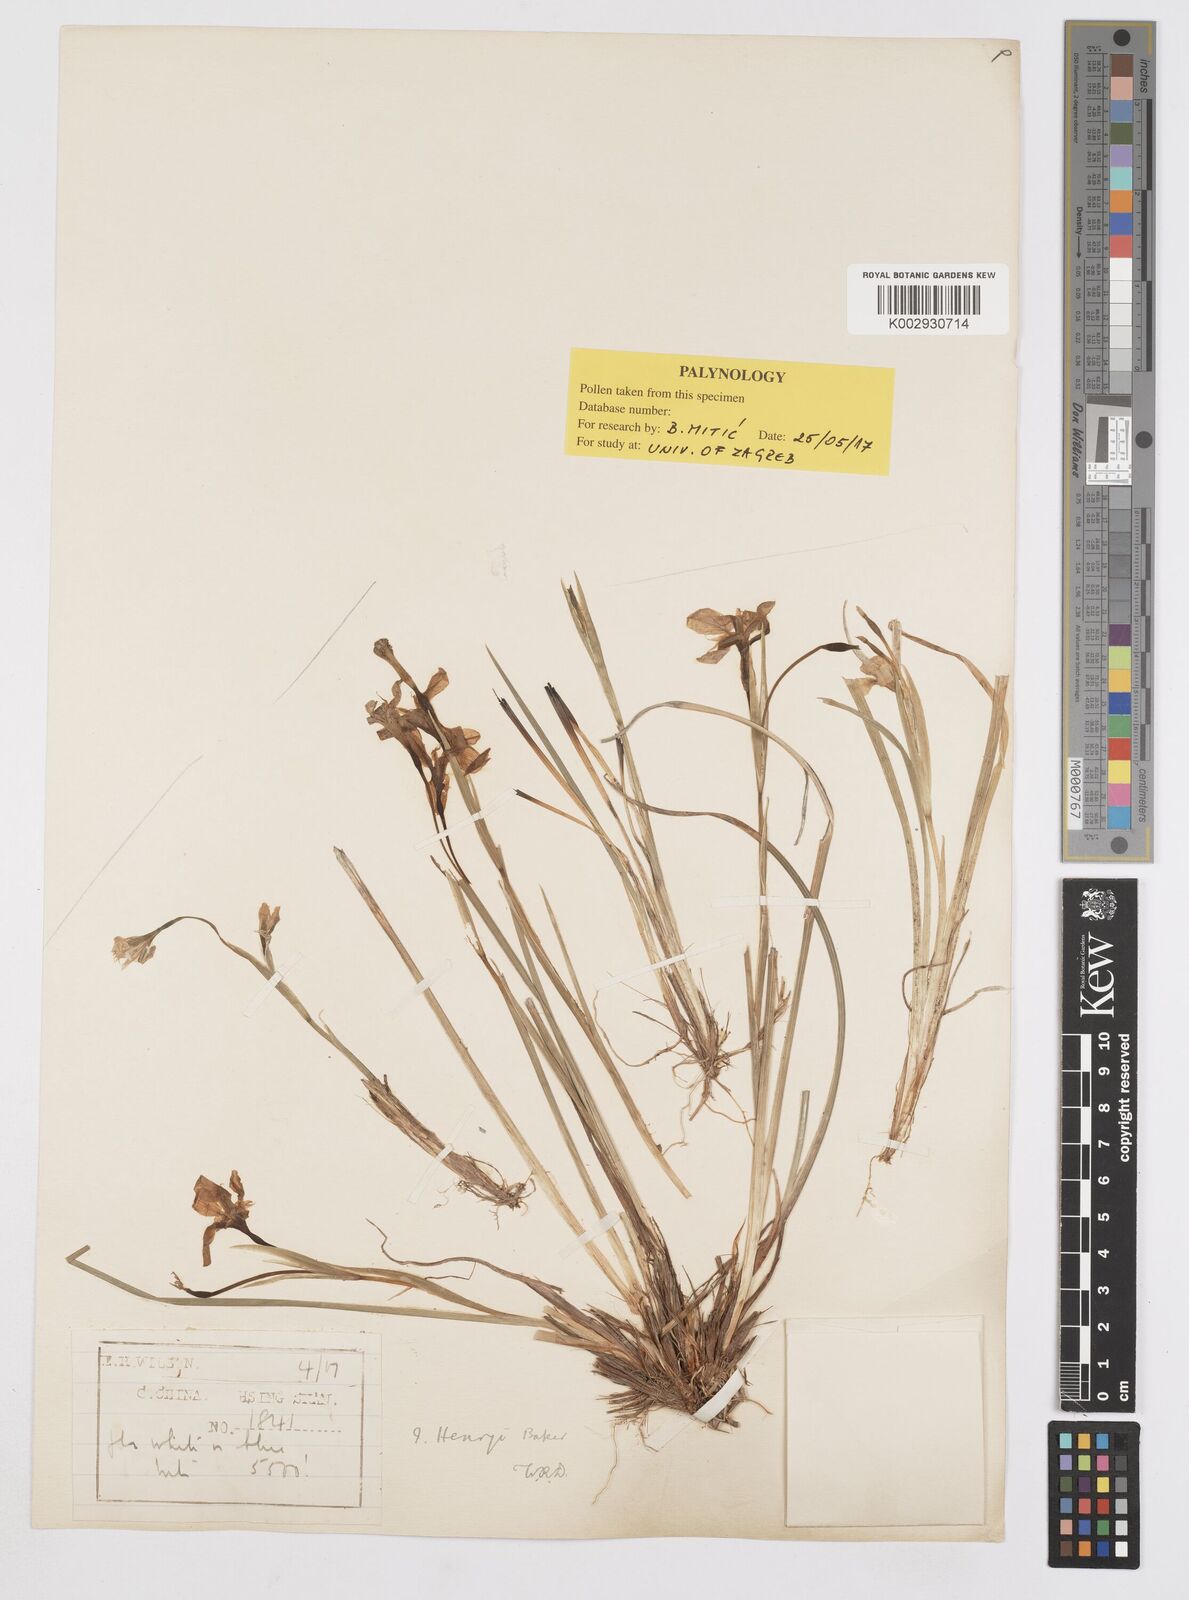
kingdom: Plantae
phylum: Tracheophyta
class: Liliopsida
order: Asparagales
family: Iridaceae
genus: Iris
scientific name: Iris henryi
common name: Long-pedicel iris
